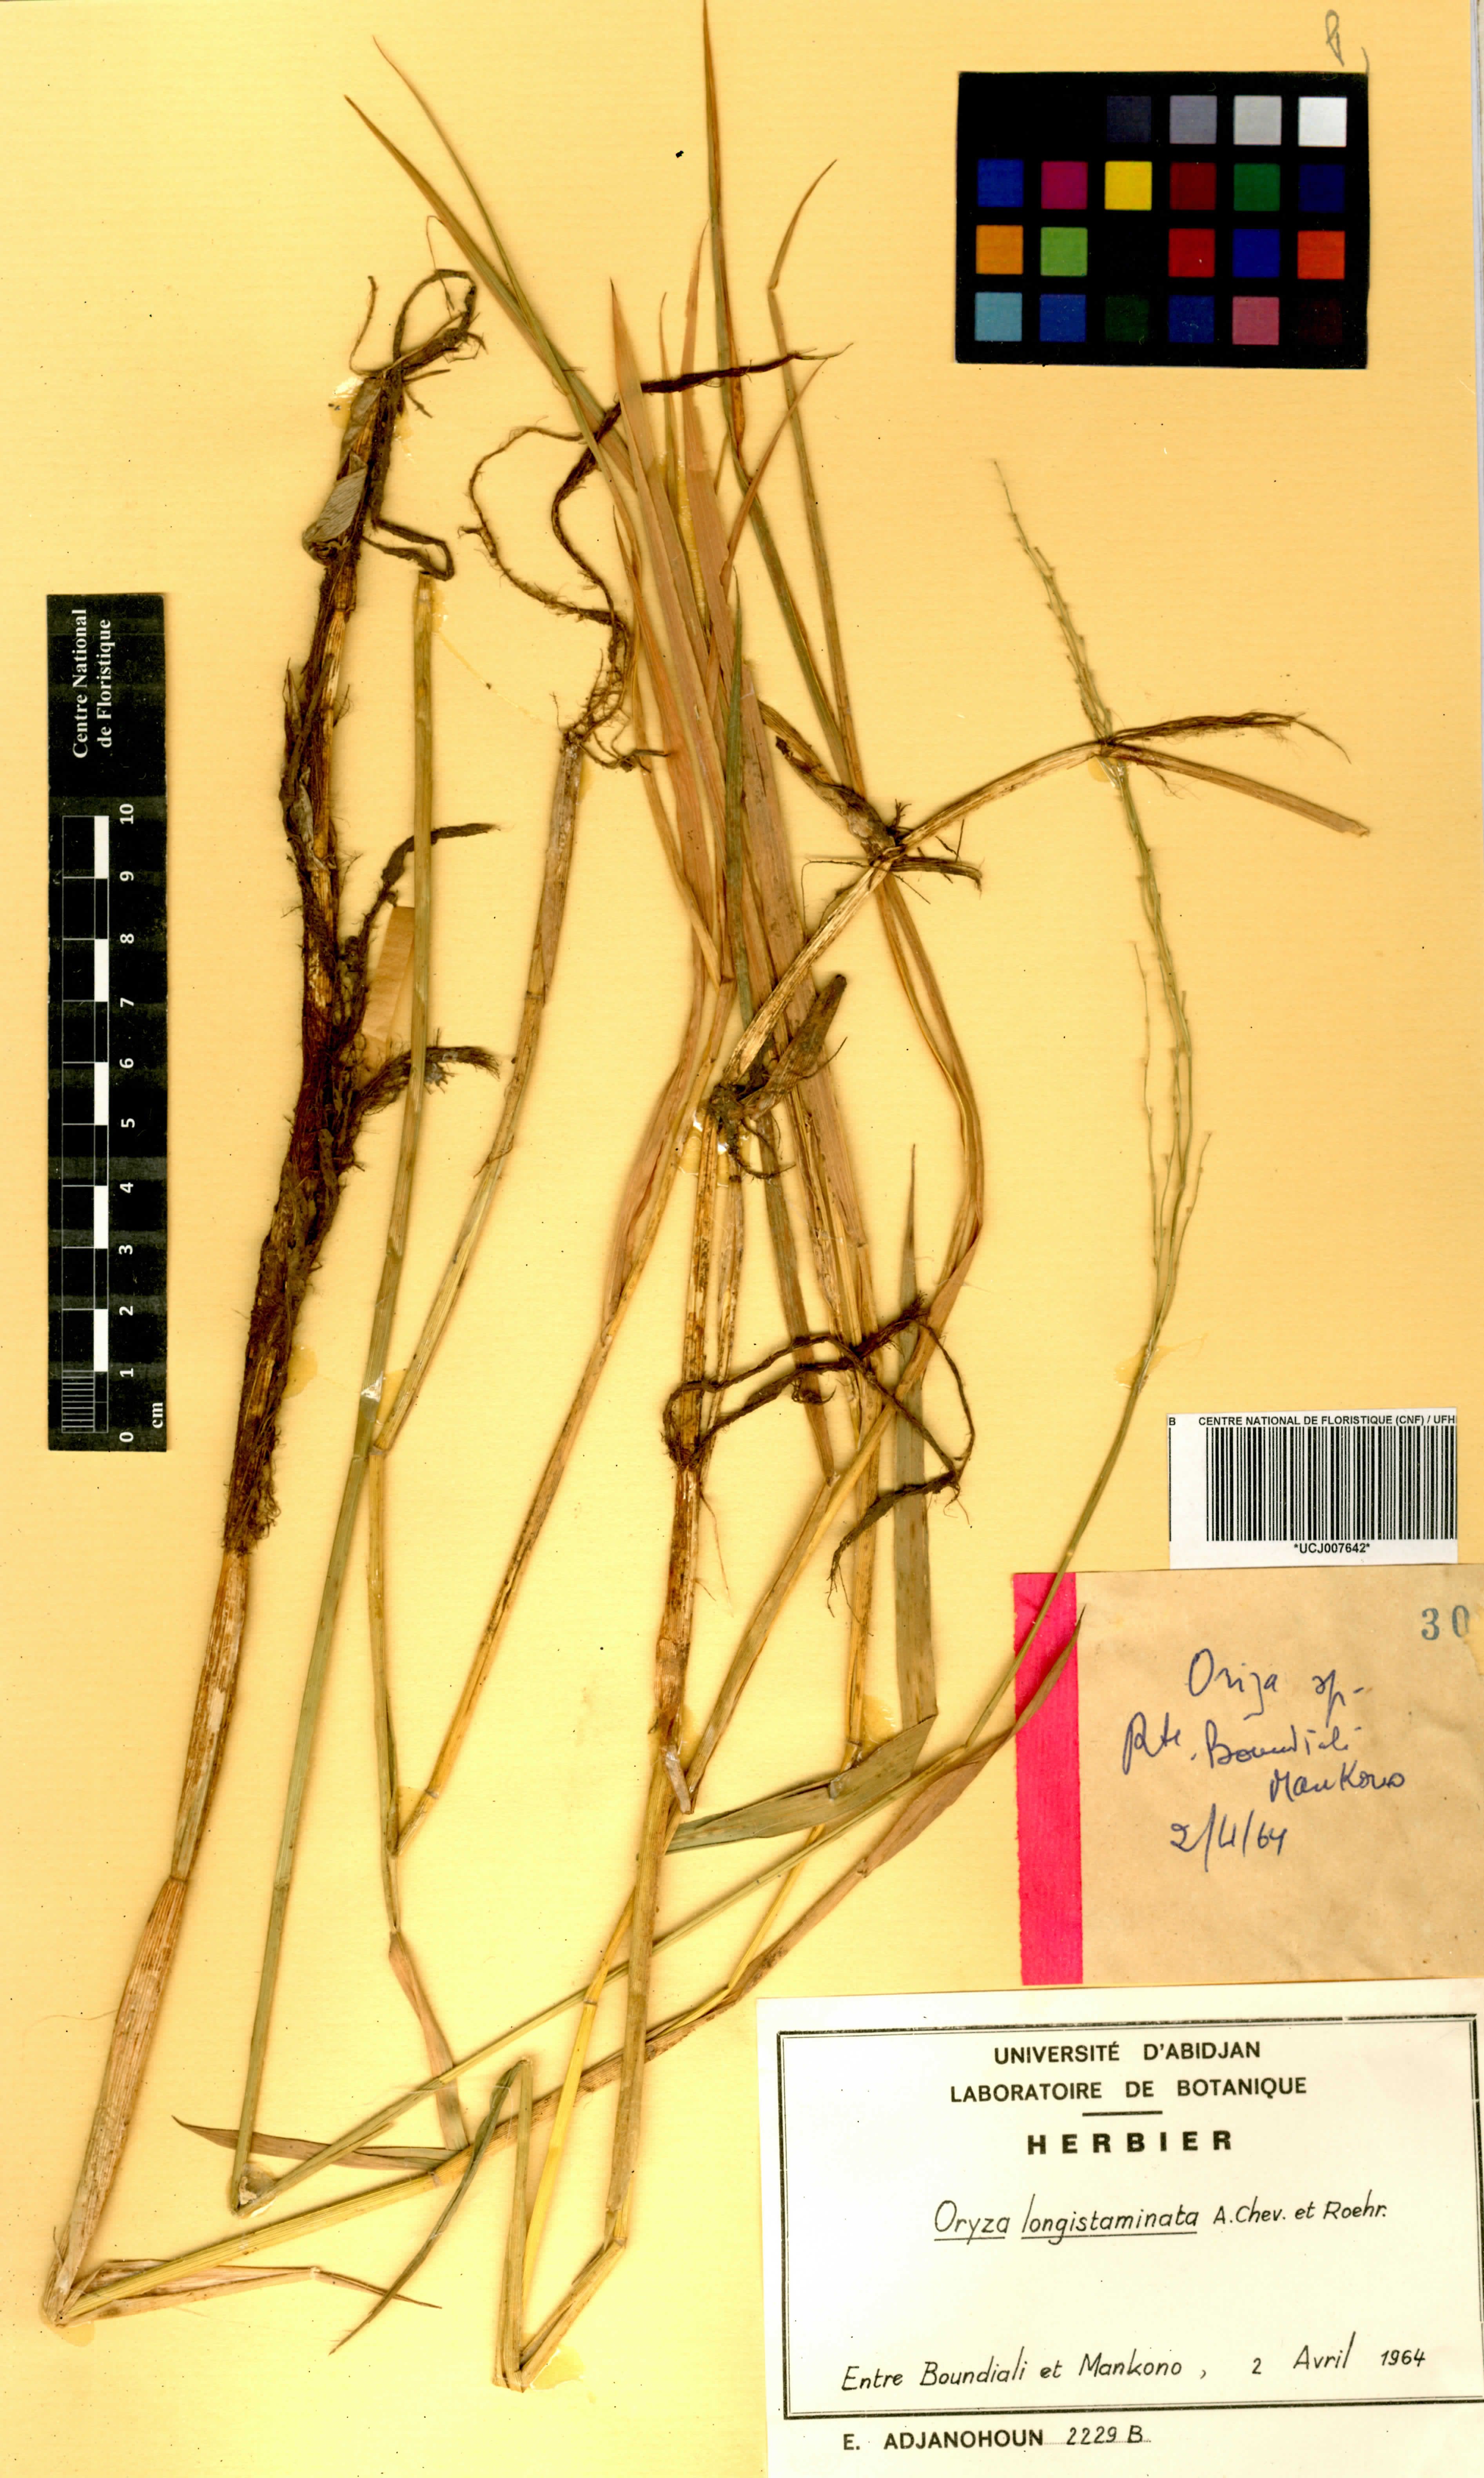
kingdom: Plantae
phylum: Tracheophyta
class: Liliopsida
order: Poales
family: Poaceae
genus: Oryza
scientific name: Oryza longistaminata
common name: Red rice
